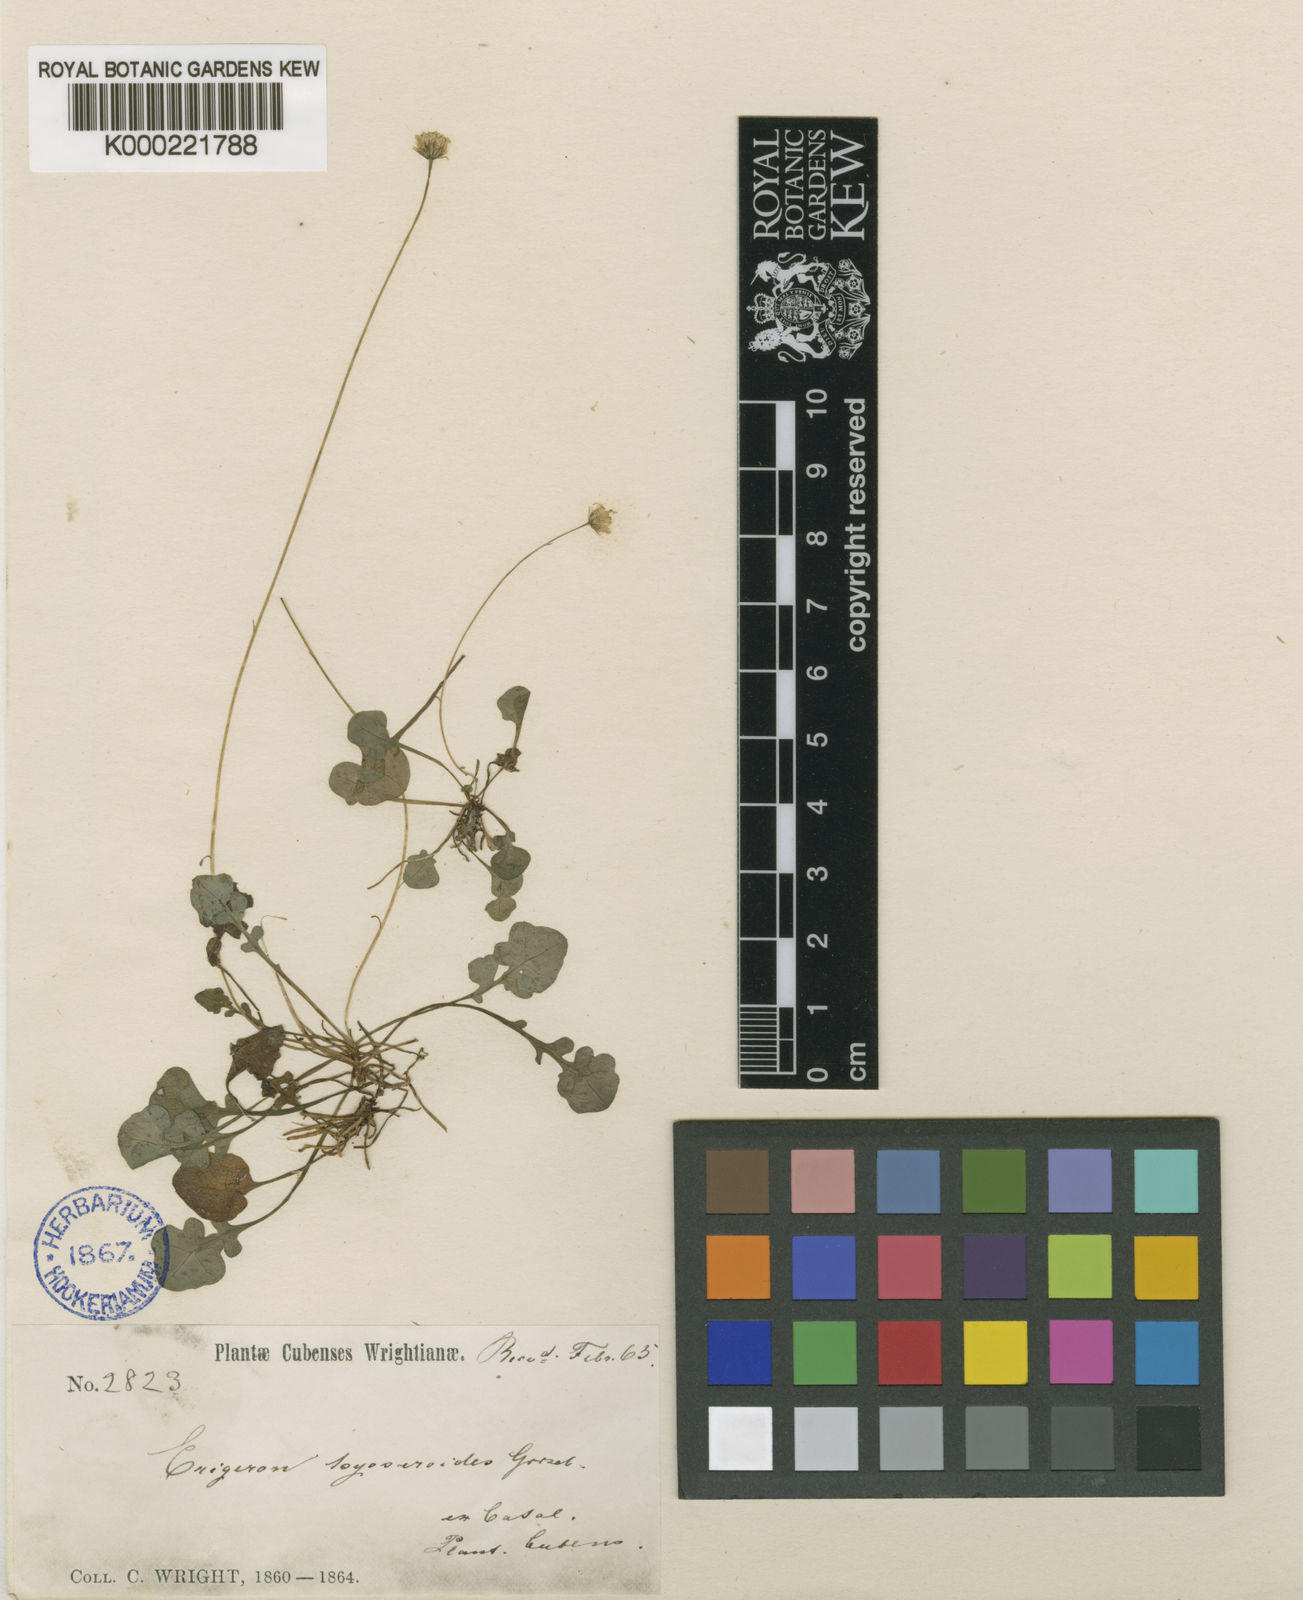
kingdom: Plantae
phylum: Tracheophyta
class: Magnoliopsida
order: Asterales
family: Asteraceae
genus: Erigeron
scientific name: Erigeron hyoseroides
